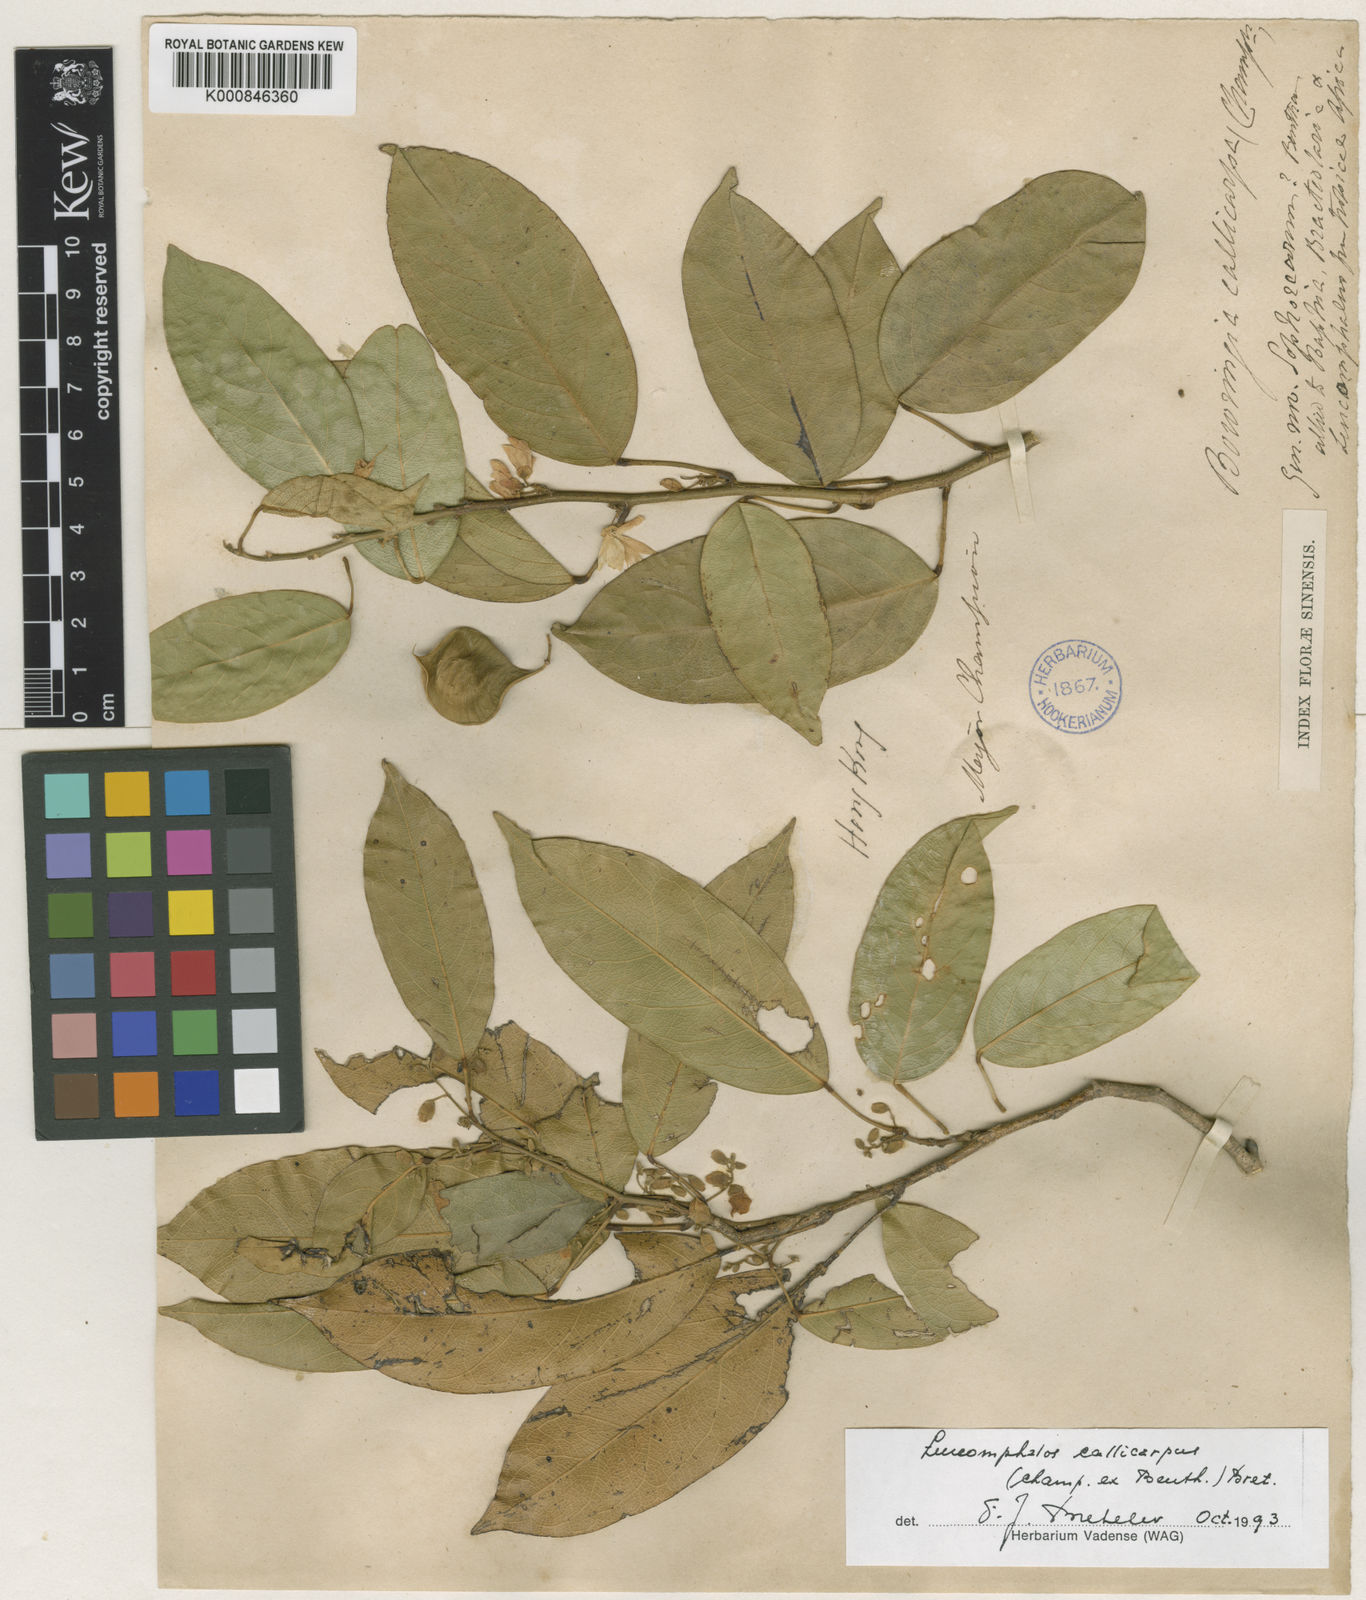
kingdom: Plantae
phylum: Tracheophyta
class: Magnoliopsida
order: Fabales
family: Fabaceae
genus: Bowringia
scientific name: Bowringia callicarpa
